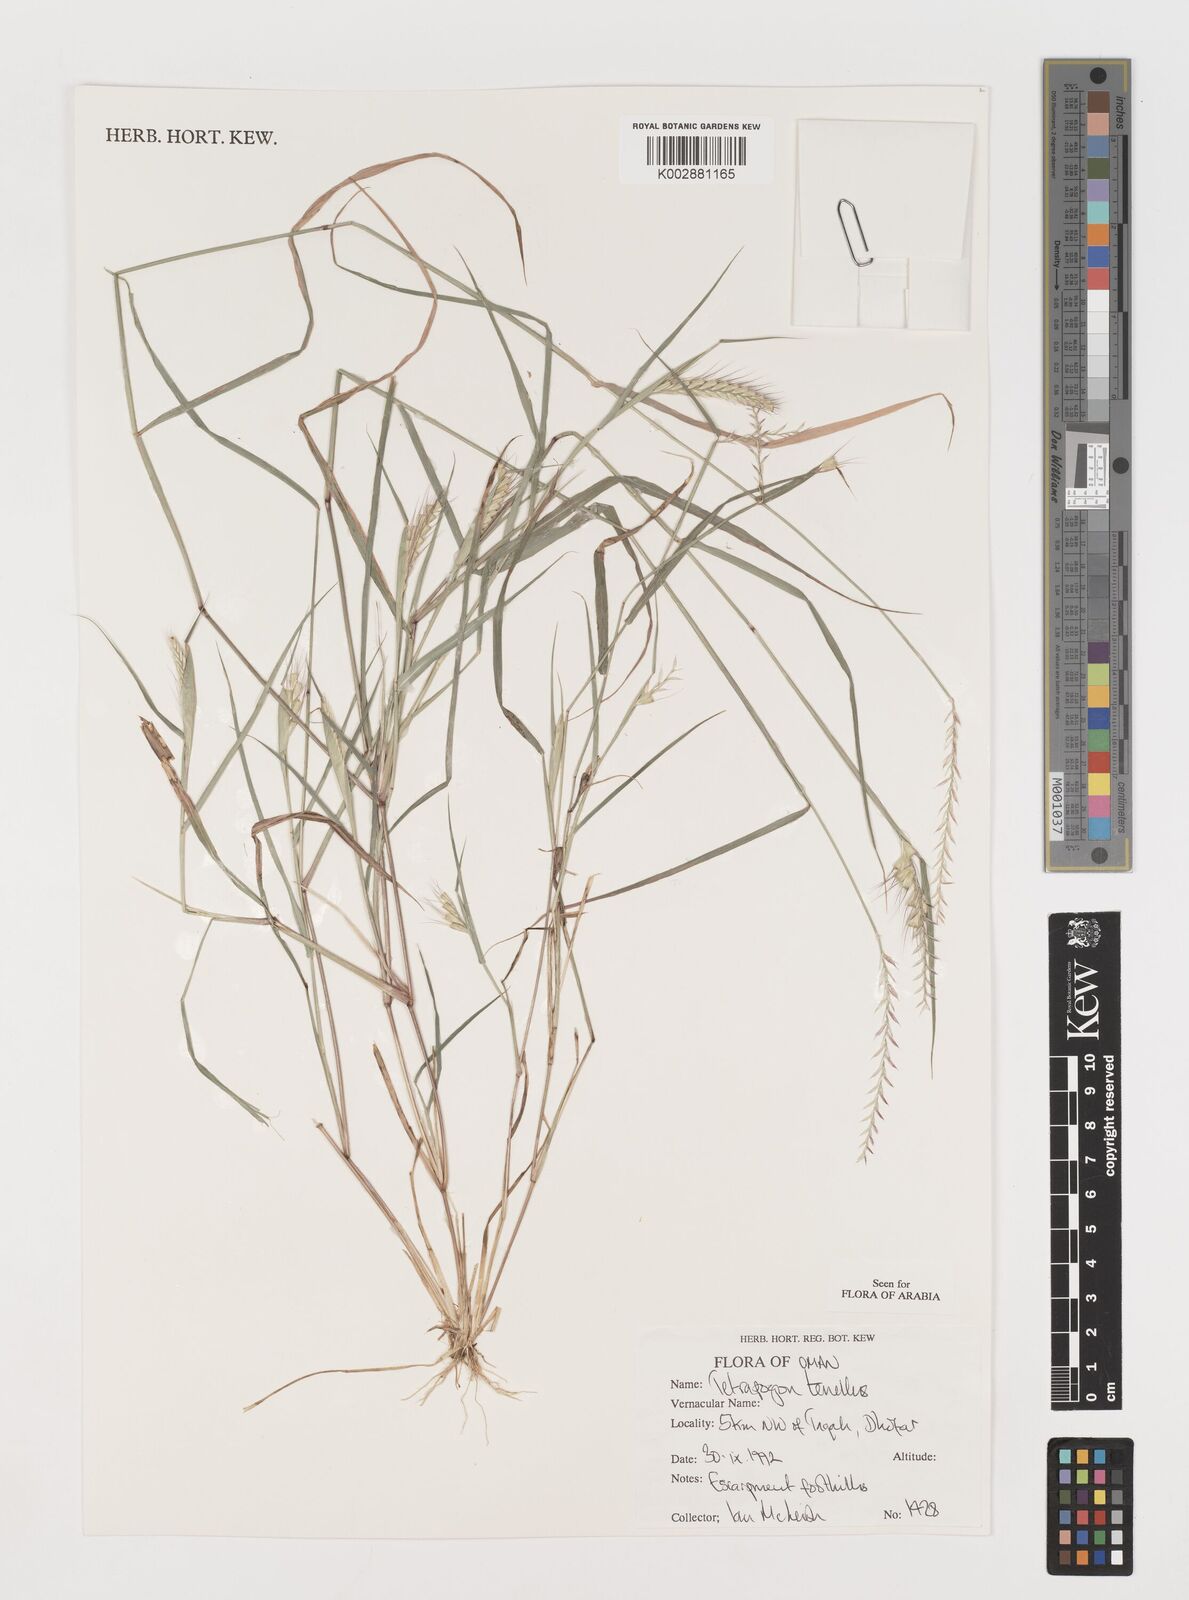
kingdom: Plantae
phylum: Tracheophyta
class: Liliopsida
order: Poales
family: Poaceae
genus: Tetrapogon
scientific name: Tetrapogon tenellus
